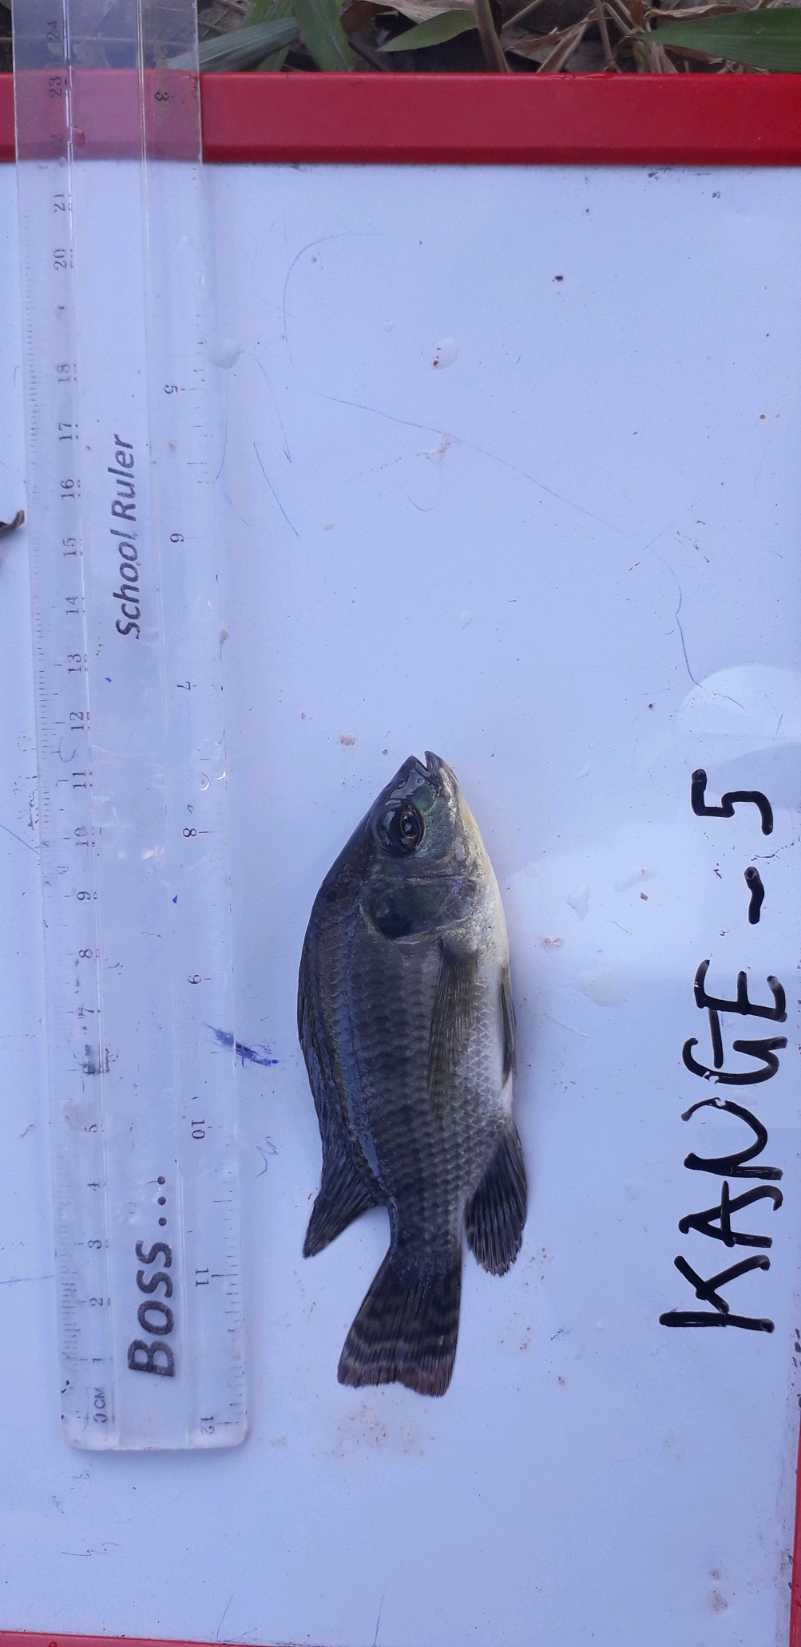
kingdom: Animalia
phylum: Chordata
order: Perciformes
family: Cichlidae
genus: Oreochromis
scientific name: Oreochromis niloticus
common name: Nile tilapia
